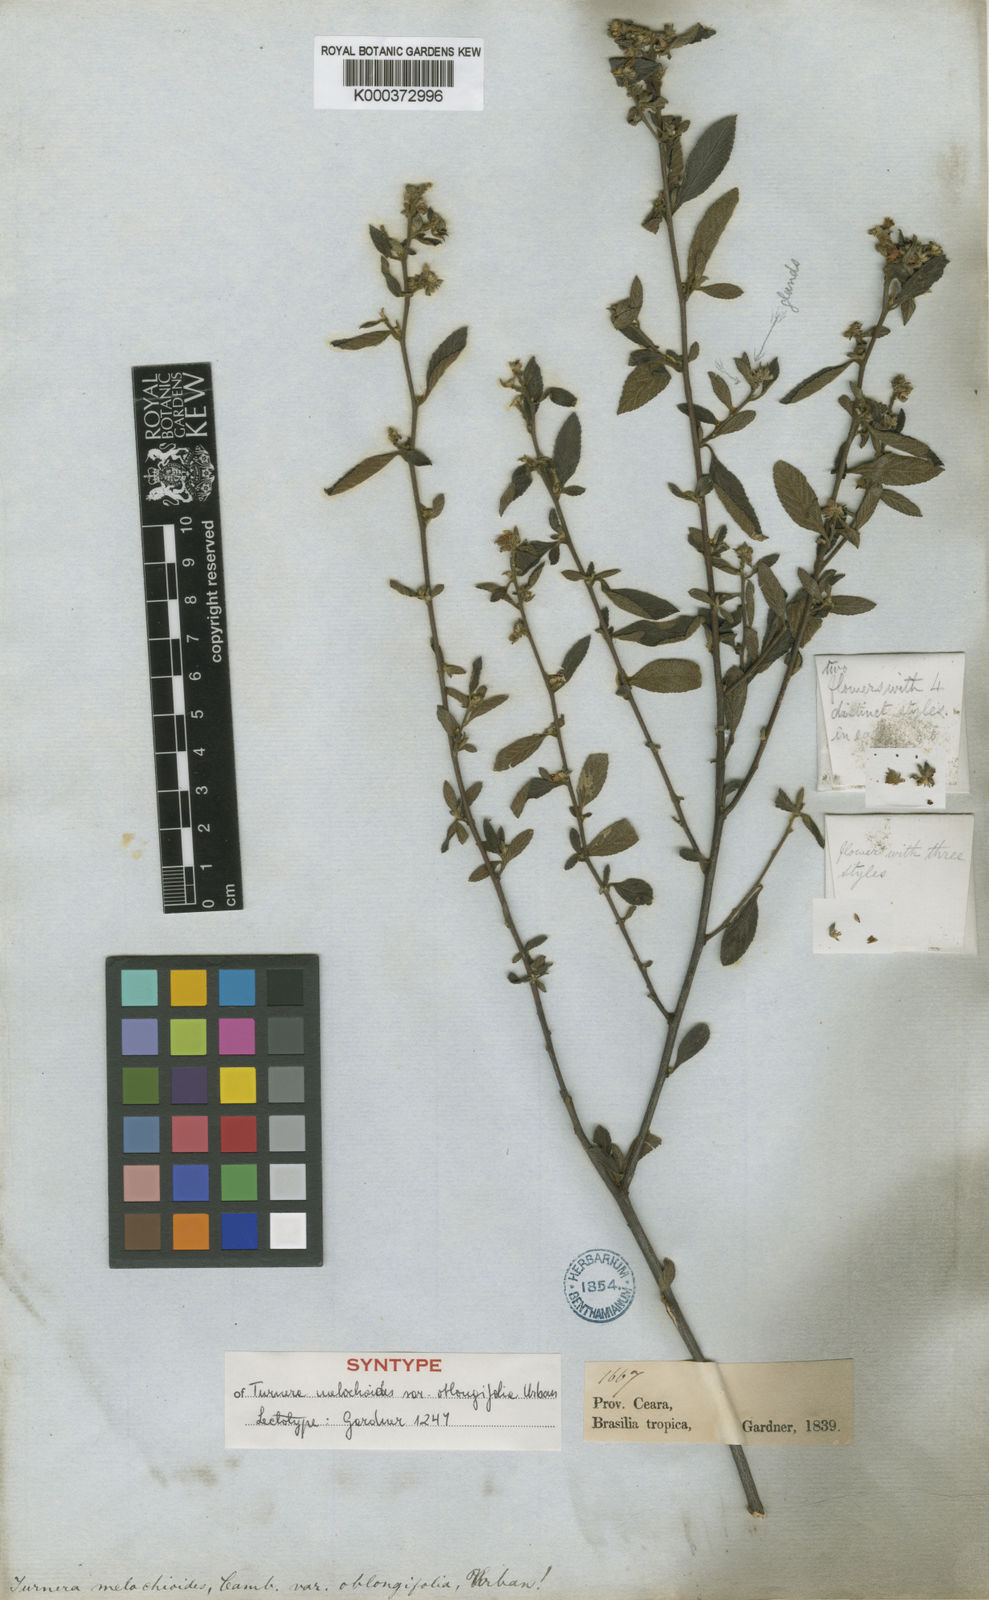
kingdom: Plantae
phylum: Tracheophyta
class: Magnoliopsida
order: Malpighiales
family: Turneraceae
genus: Turnera
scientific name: Turnera arenaria
